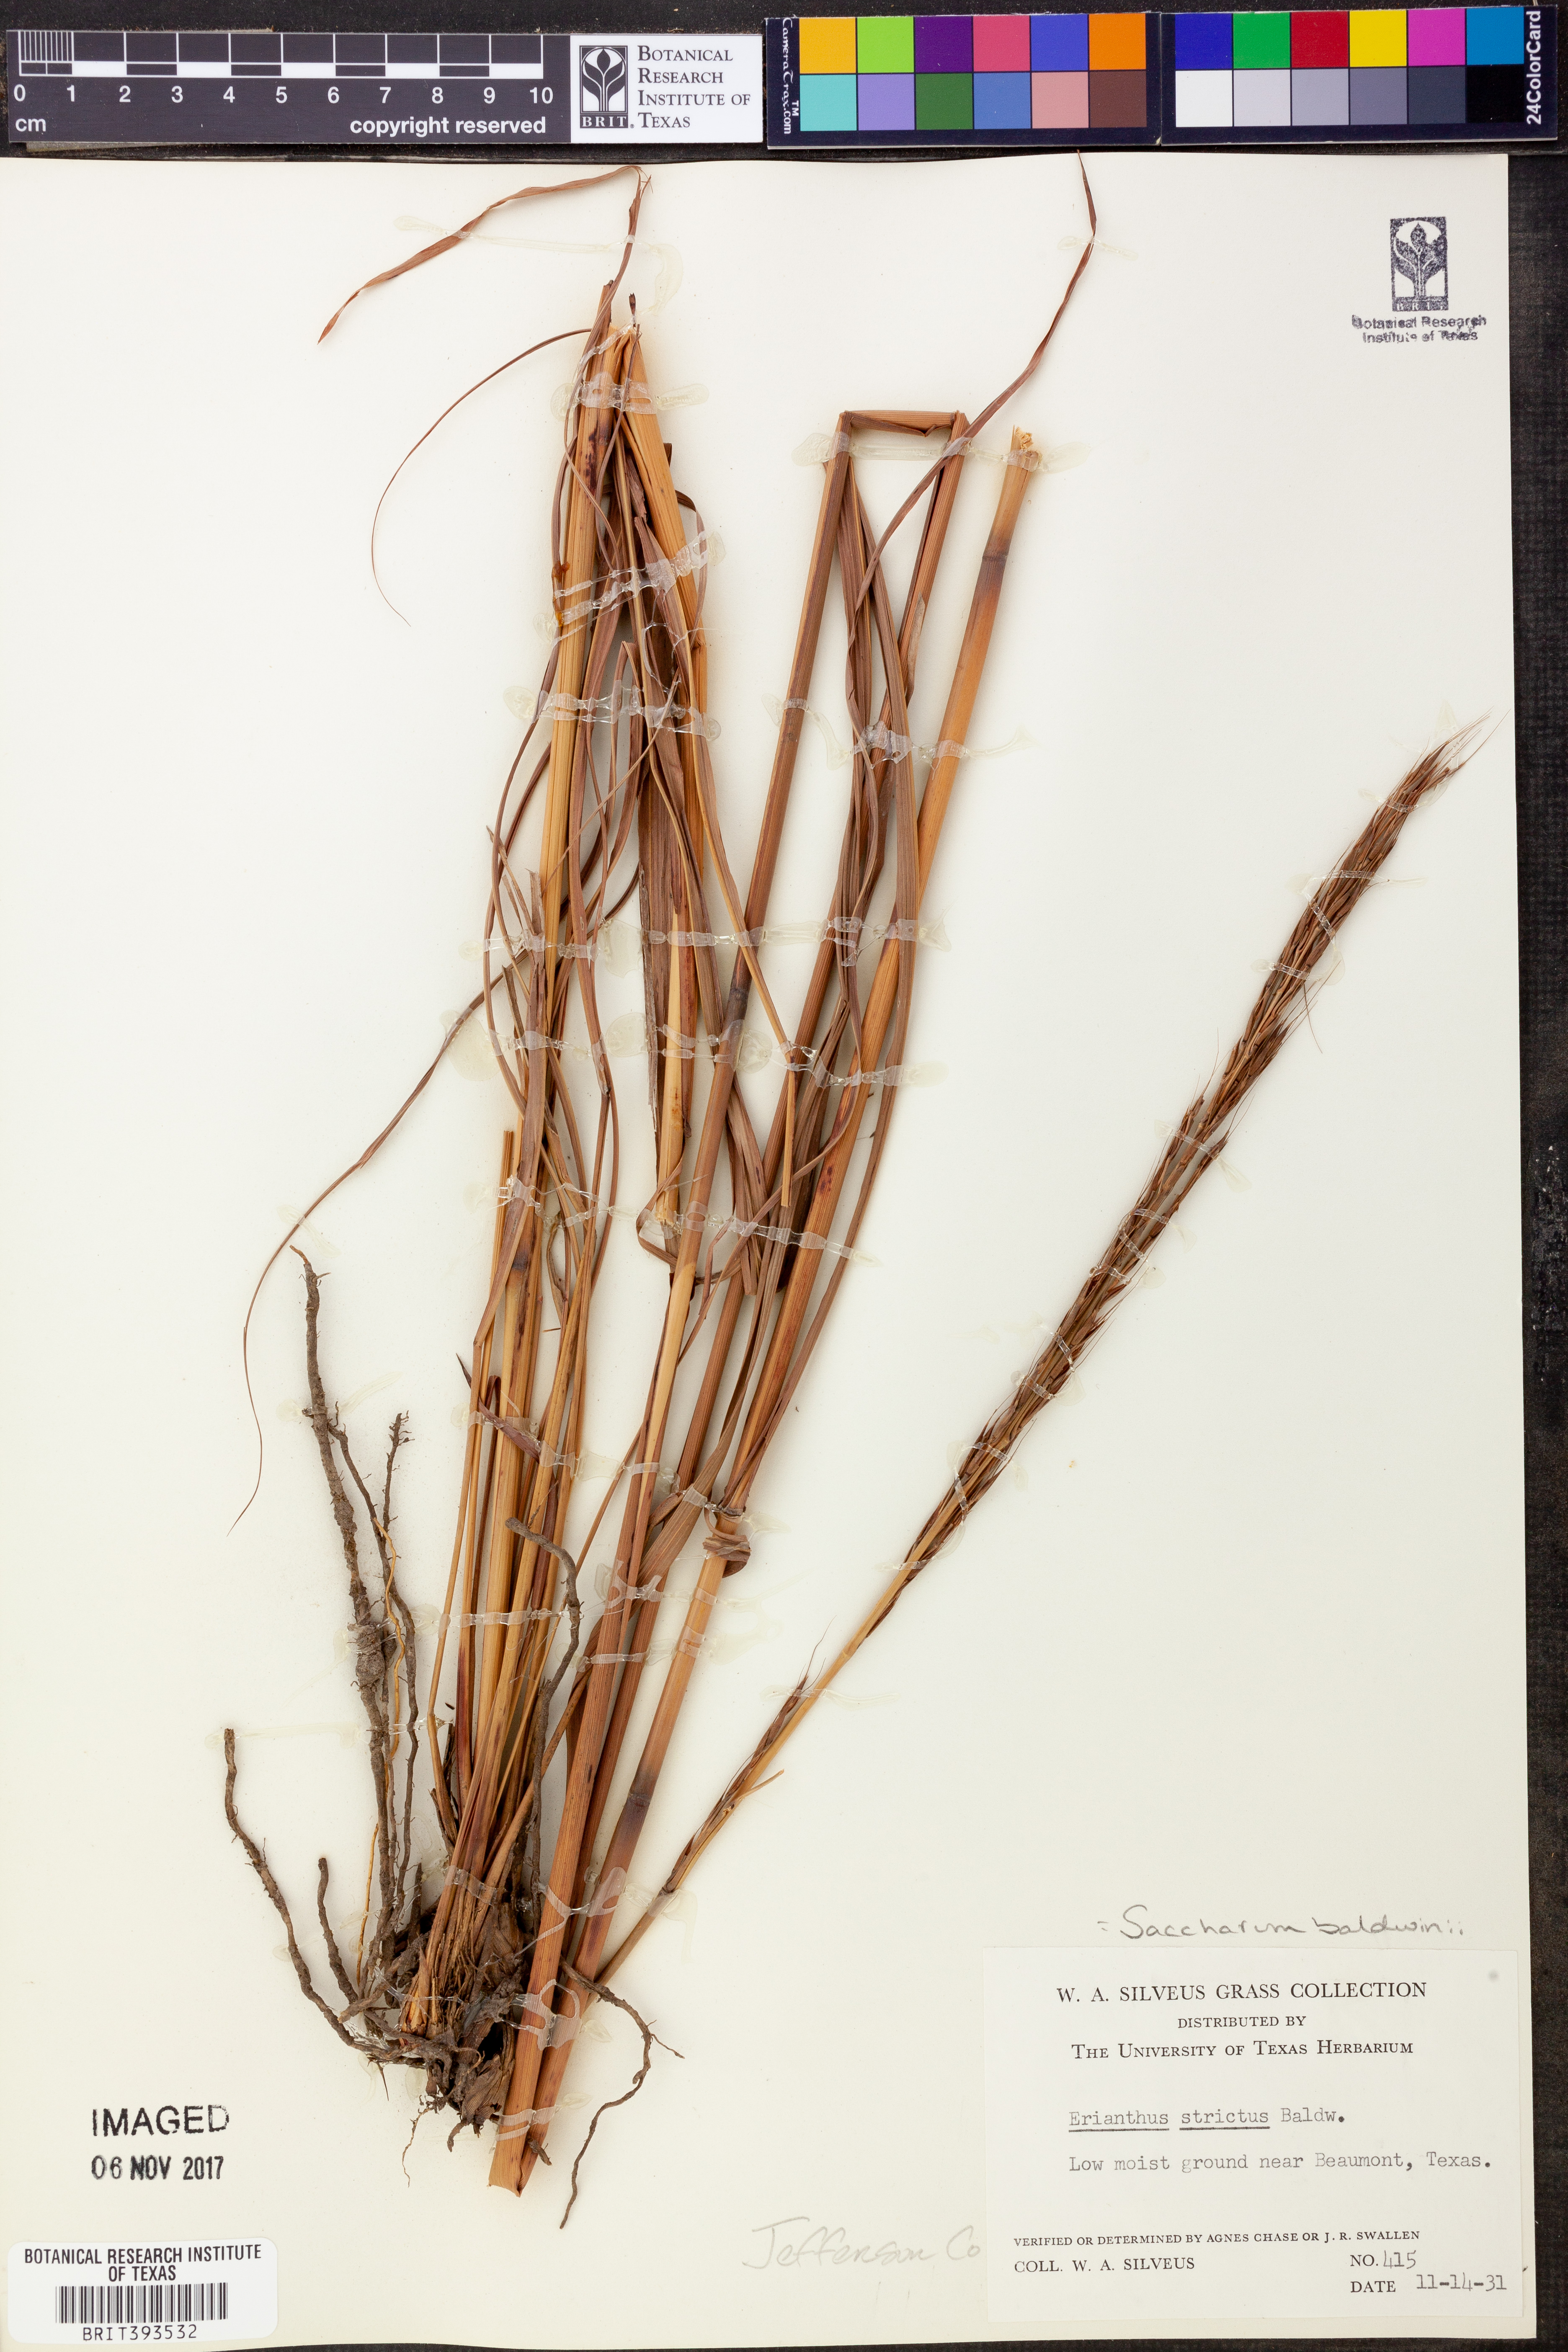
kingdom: Plantae
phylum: Tracheophyta
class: Liliopsida
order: Poales
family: Poaceae
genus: Erianthus
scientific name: Erianthus strictus
